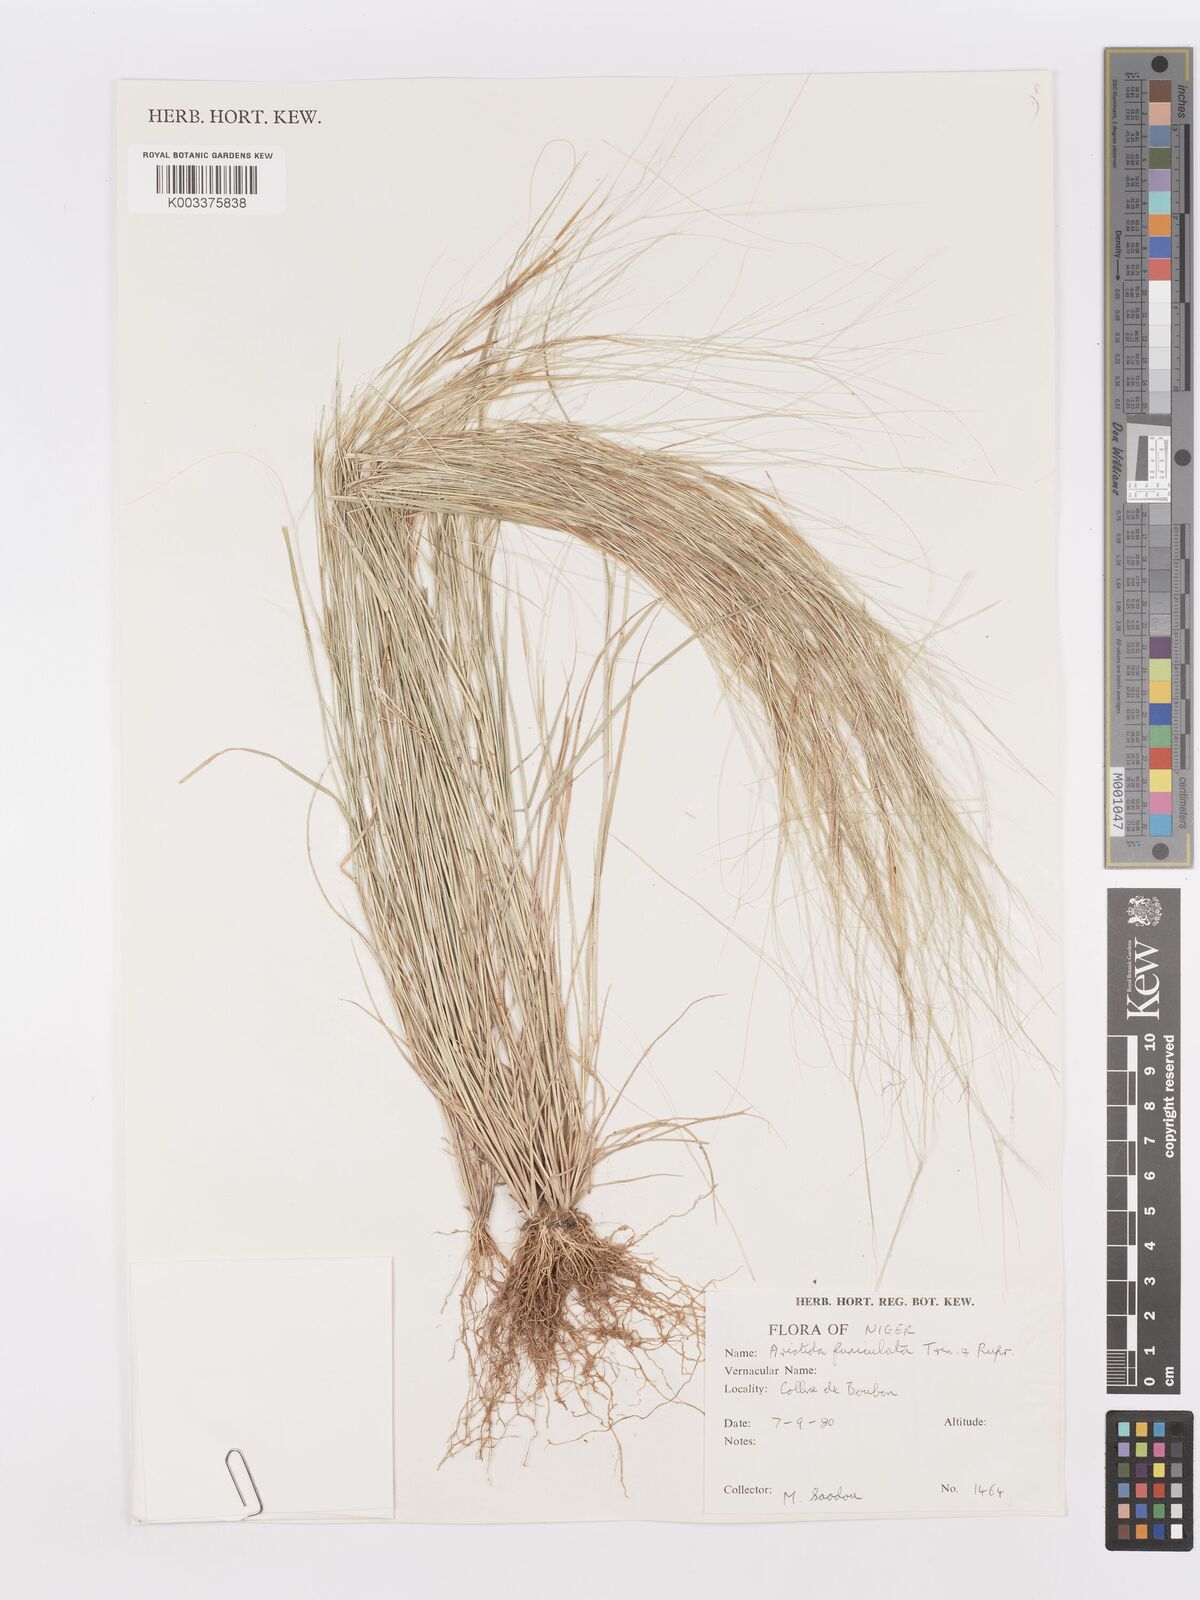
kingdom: Plantae
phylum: Tracheophyta
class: Liliopsida
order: Poales
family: Poaceae
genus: Aristida
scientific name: Aristida funiculata
